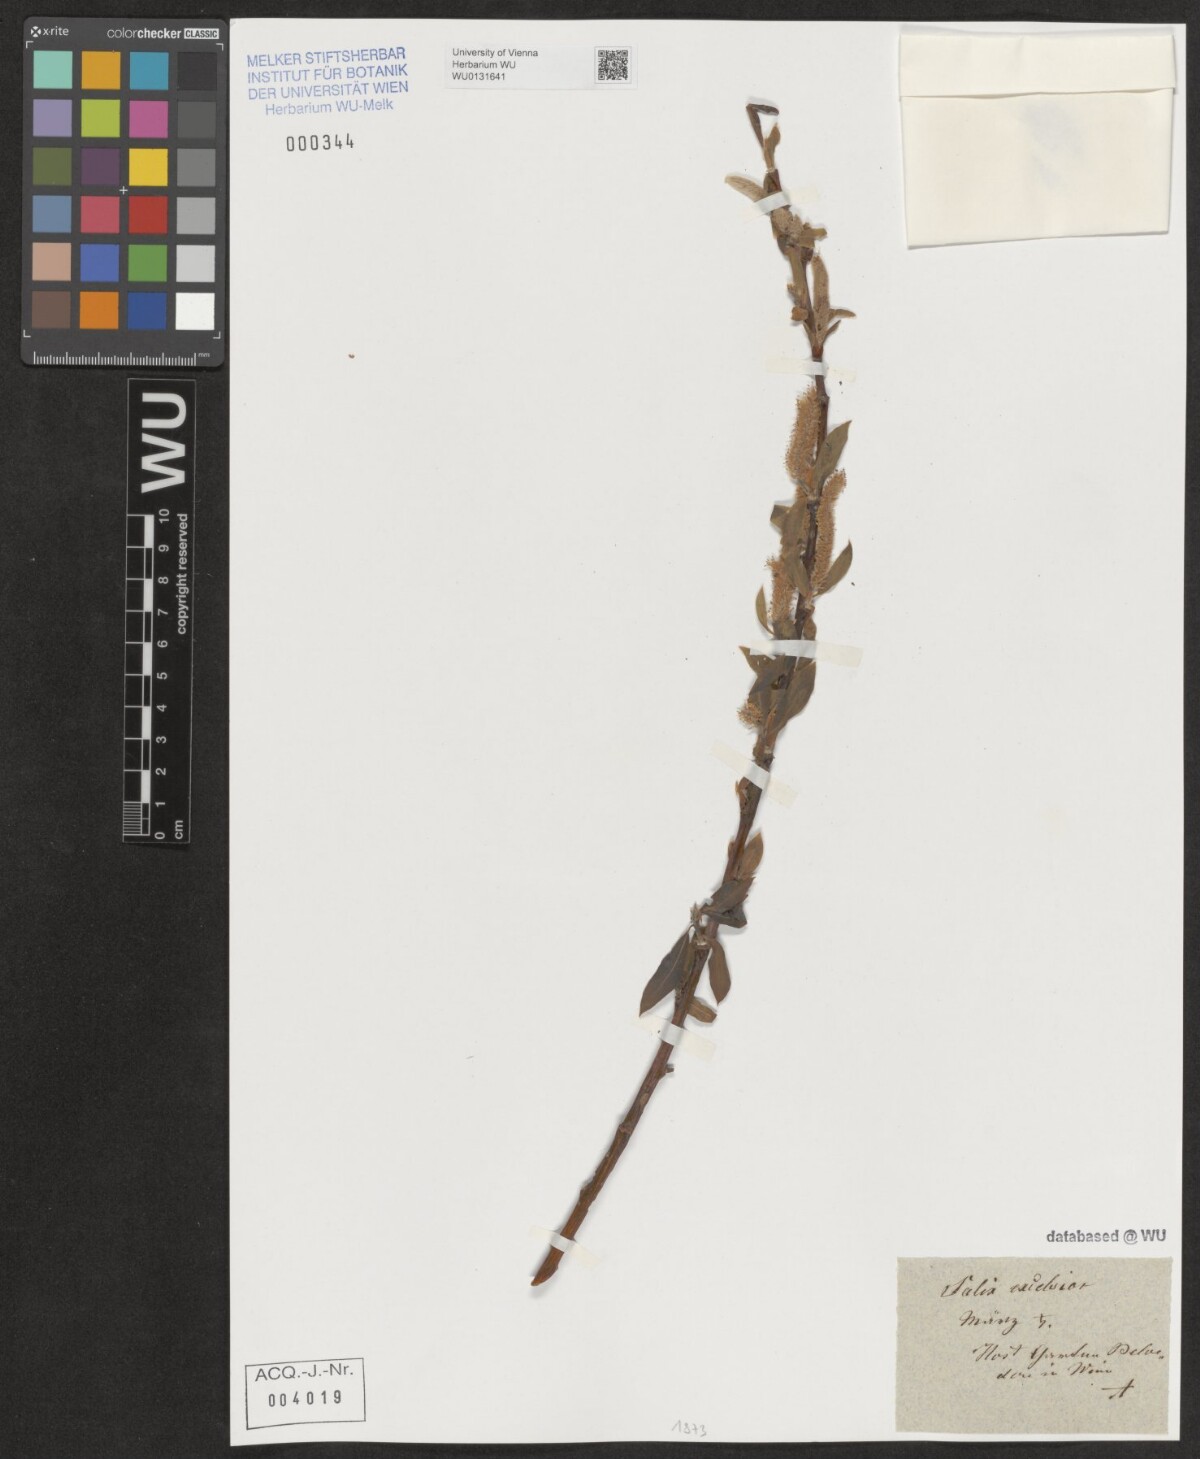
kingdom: Plantae
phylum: Tracheophyta
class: Magnoliopsida
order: Malpighiales
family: Salicaceae
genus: Salix
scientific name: Salix rubens
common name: Hybrid crack willow
